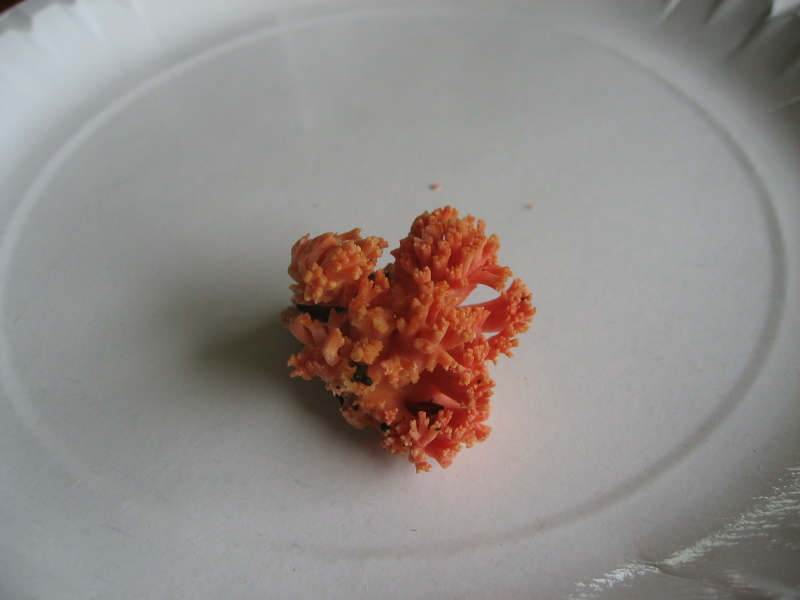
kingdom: Fungi
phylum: Basidiomycota
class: Agaricomycetes
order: Gomphales
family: Gomphaceae
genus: Ramaria
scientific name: Ramaria fagetorum
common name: abrikos-koralsvamp
